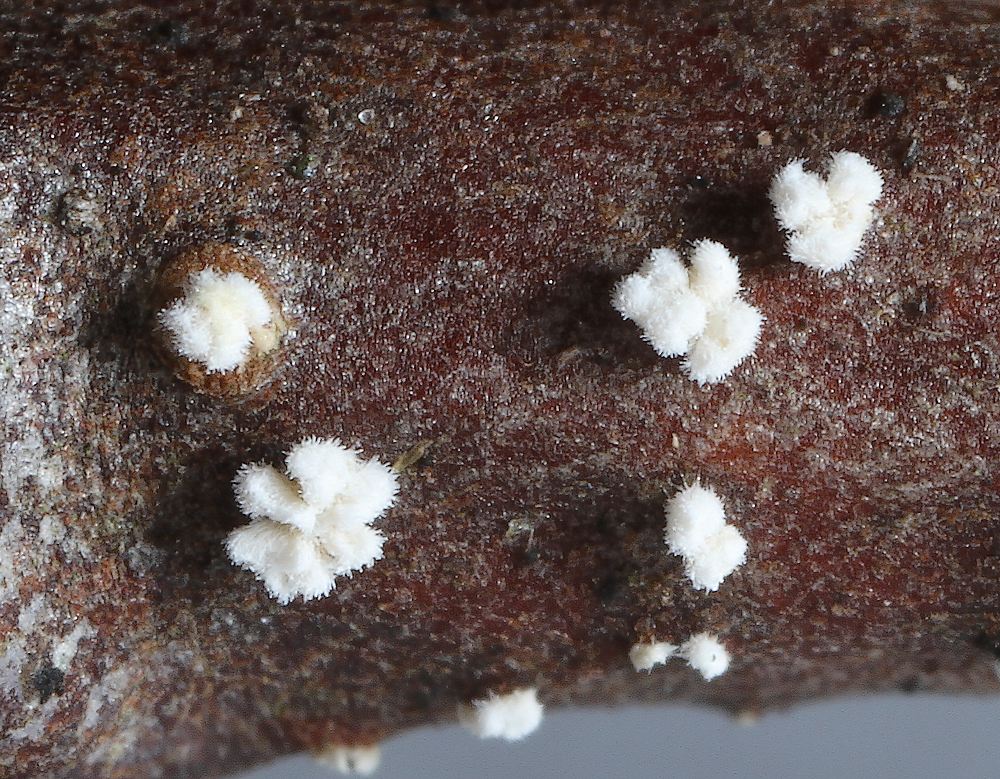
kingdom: Fungi
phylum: Basidiomycota
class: Agaricomycetes
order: Agaricales
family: Niaceae
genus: Lachnella
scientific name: Lachnella villosa
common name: hvid frynserede
